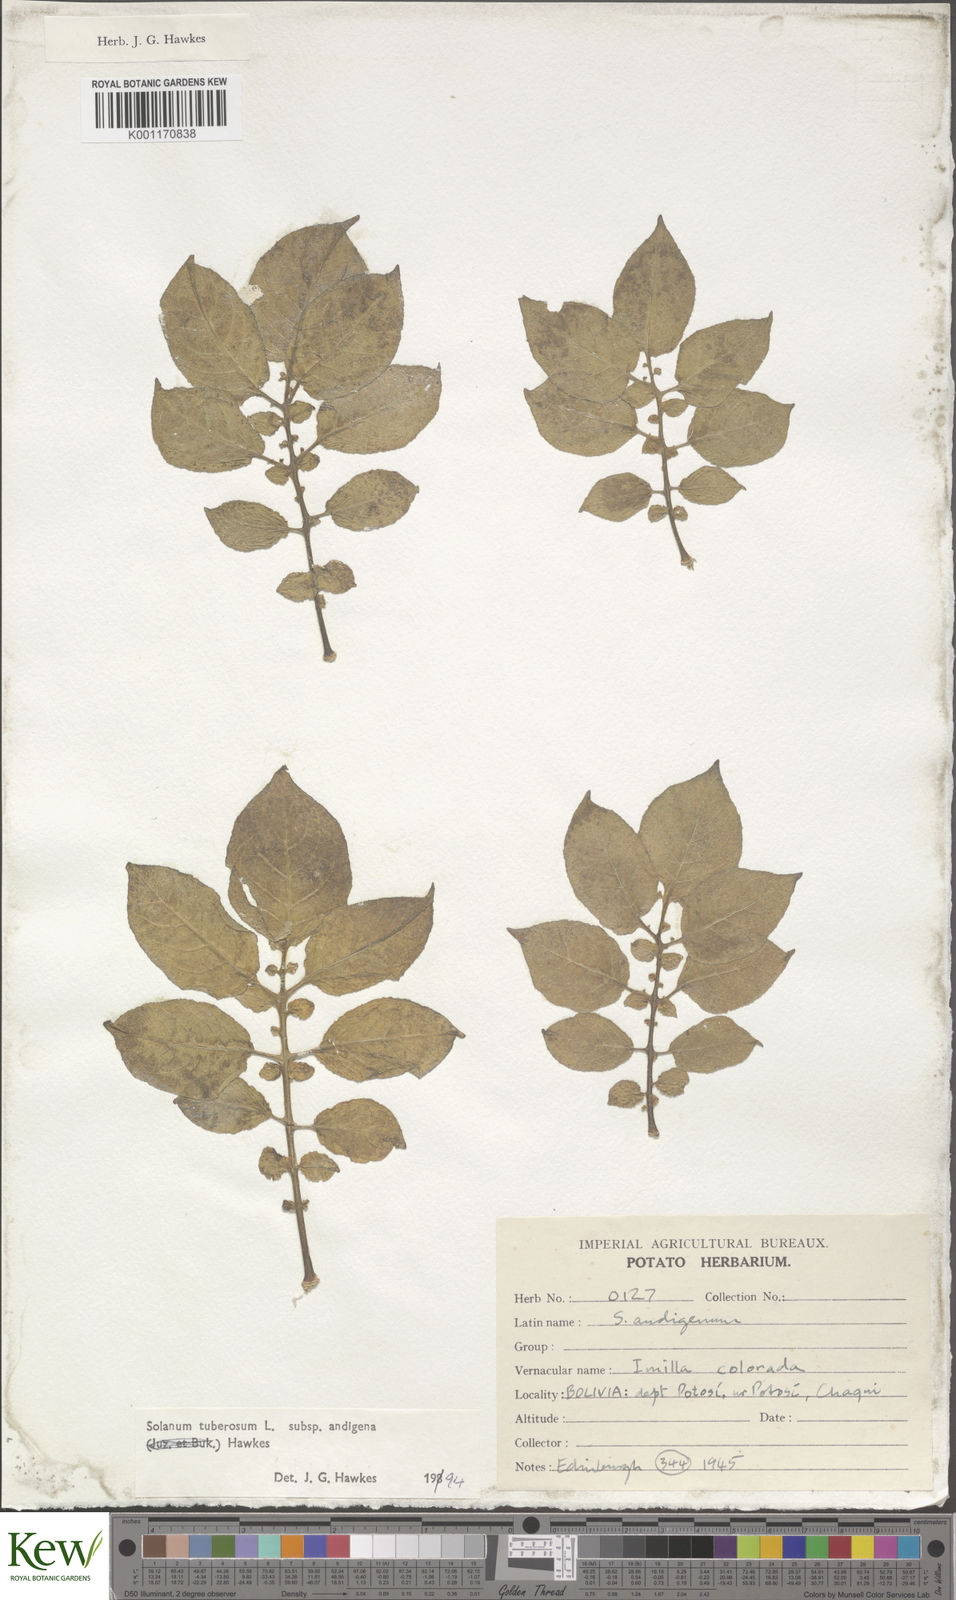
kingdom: Plantae
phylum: Tracheophyta
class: Magnoliopsida
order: Solanales
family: Solanaceae
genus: Solanum
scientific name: Solanum tuberosum
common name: Potato
